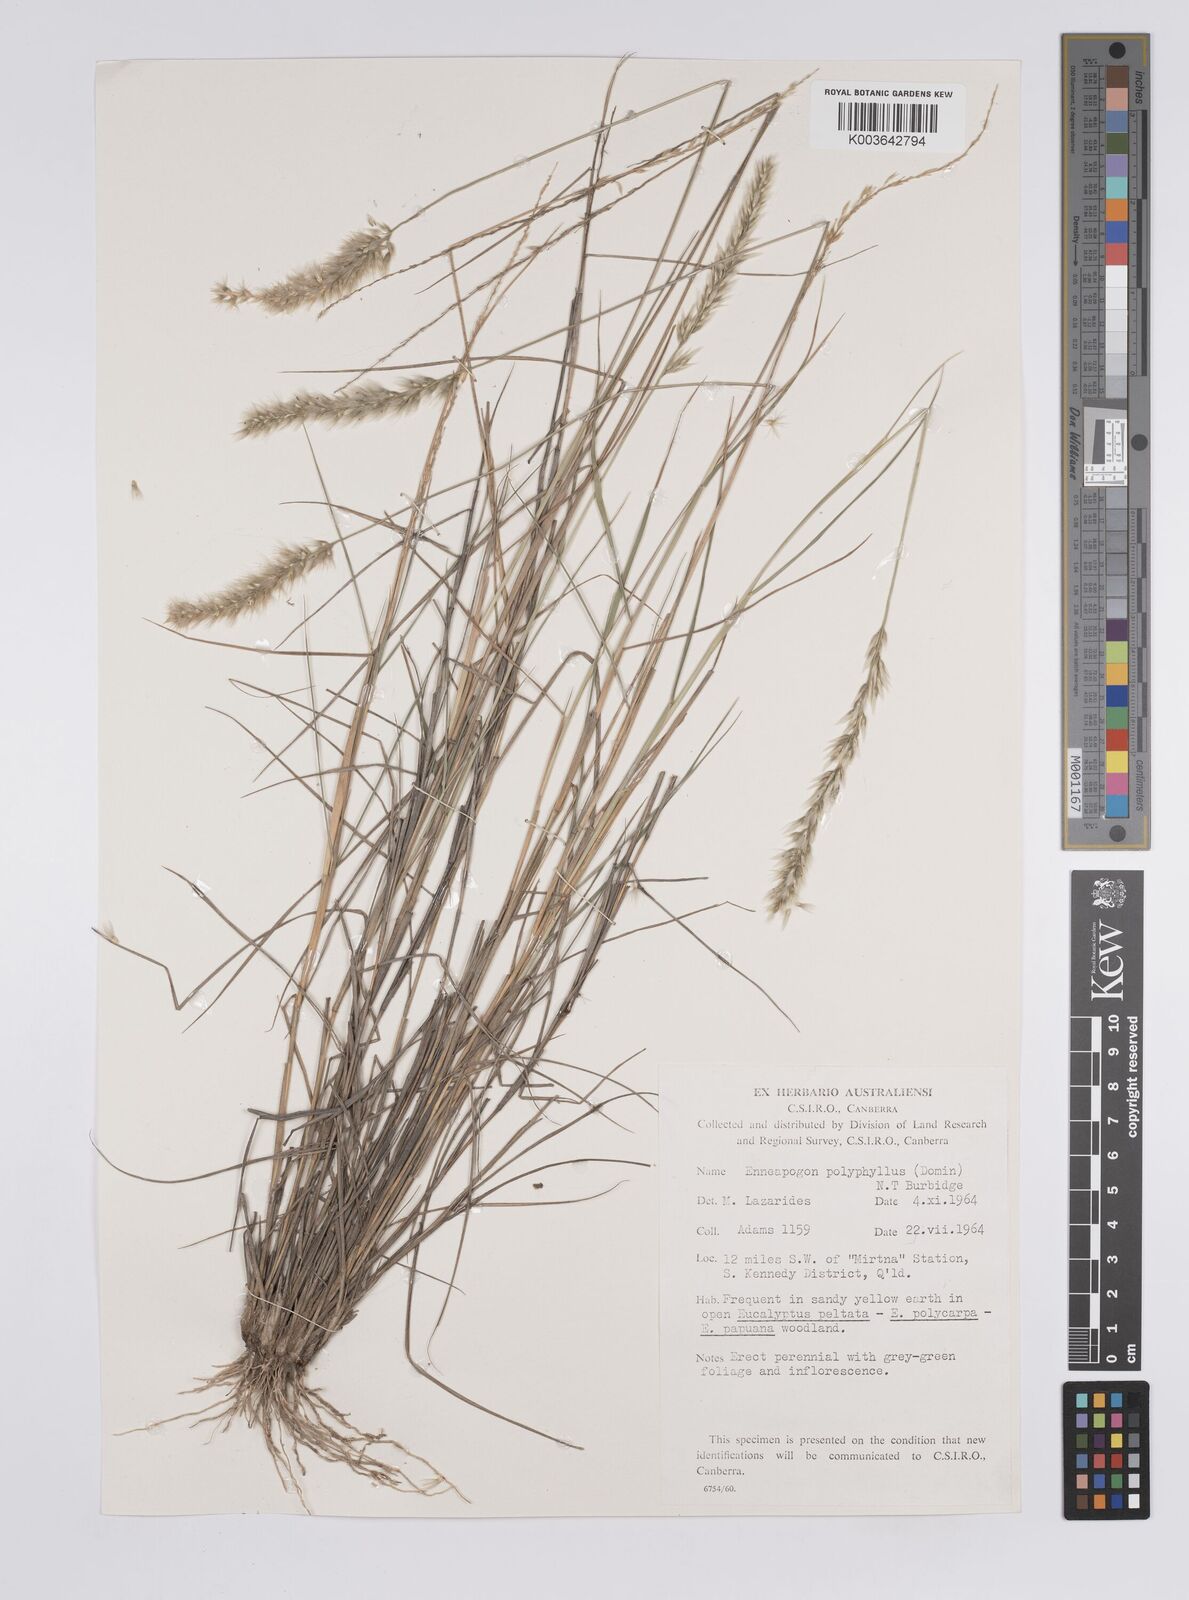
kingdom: Plantae
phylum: Tracheophyta
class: Liliopsida
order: Poales
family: Poaceae
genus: Enneapogon
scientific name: Enneapogon polyphyllus
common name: Leafy nineawn
